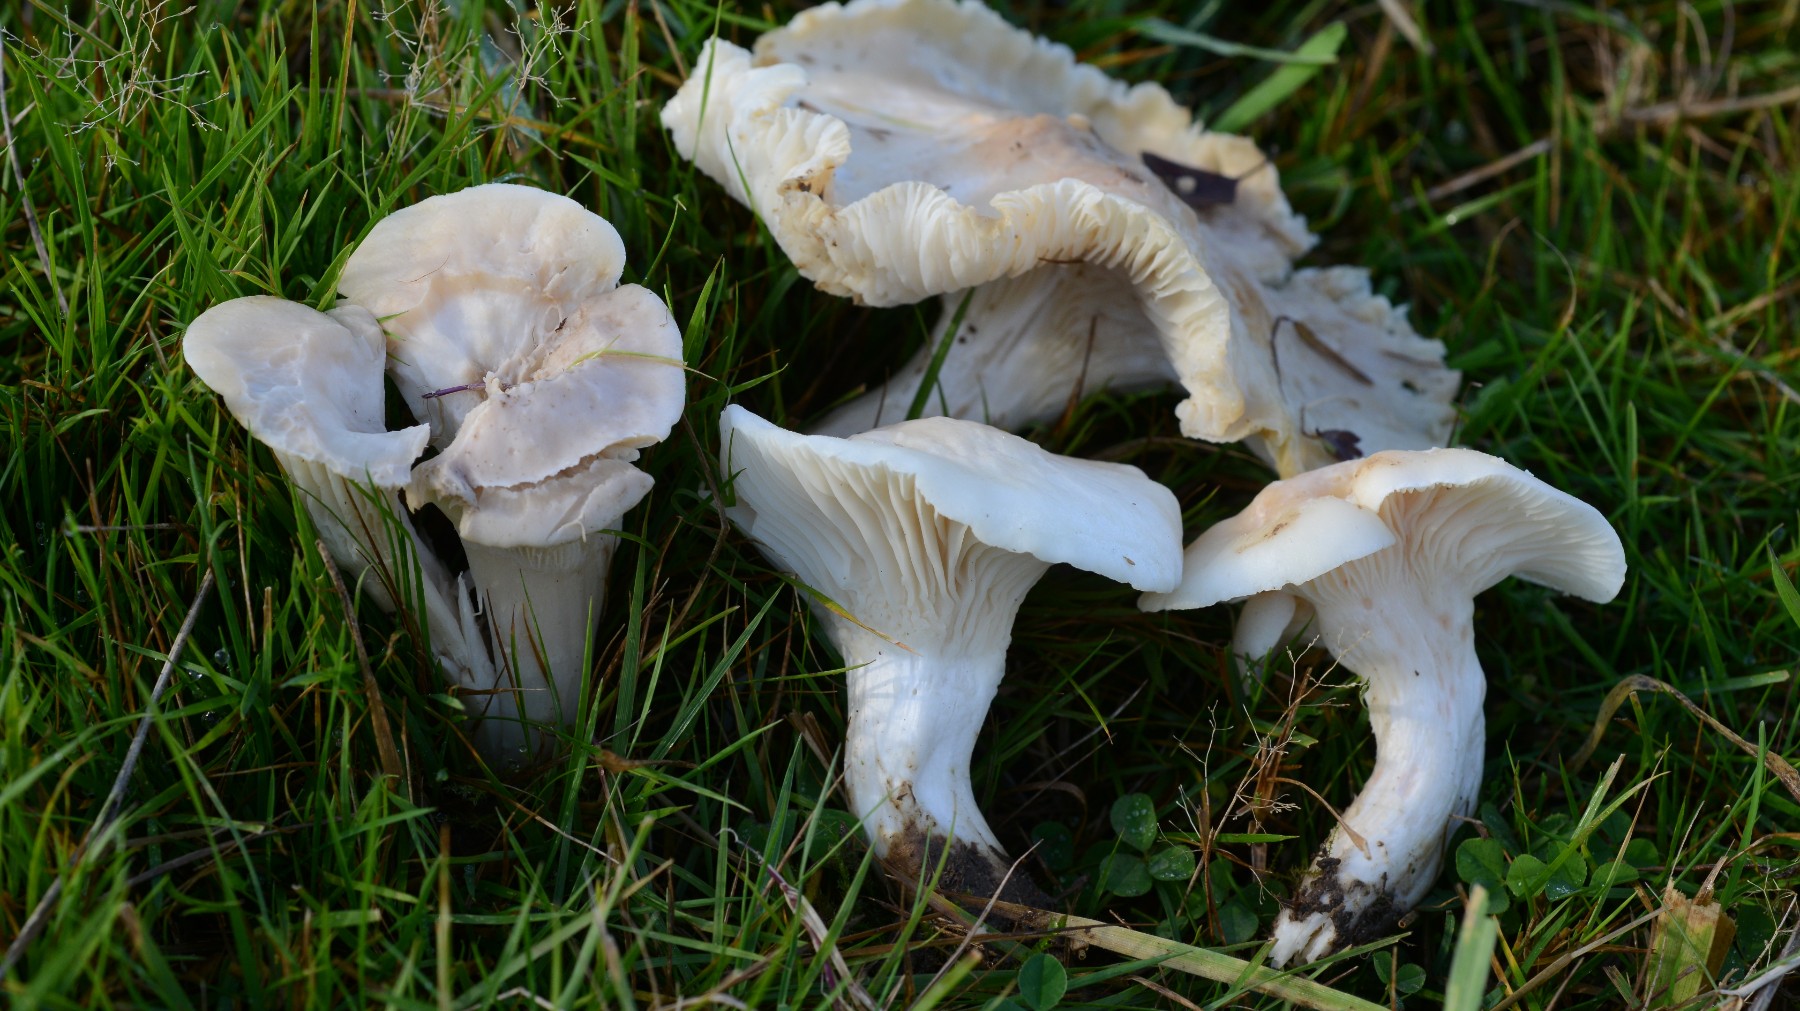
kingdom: Fungi
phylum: Basidiomycota
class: Agaricomycetes
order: Agaricales
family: Hygrophoraceae
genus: Cuphophyllus
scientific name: Cuphophyllus pratensis
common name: bleg vokshat
